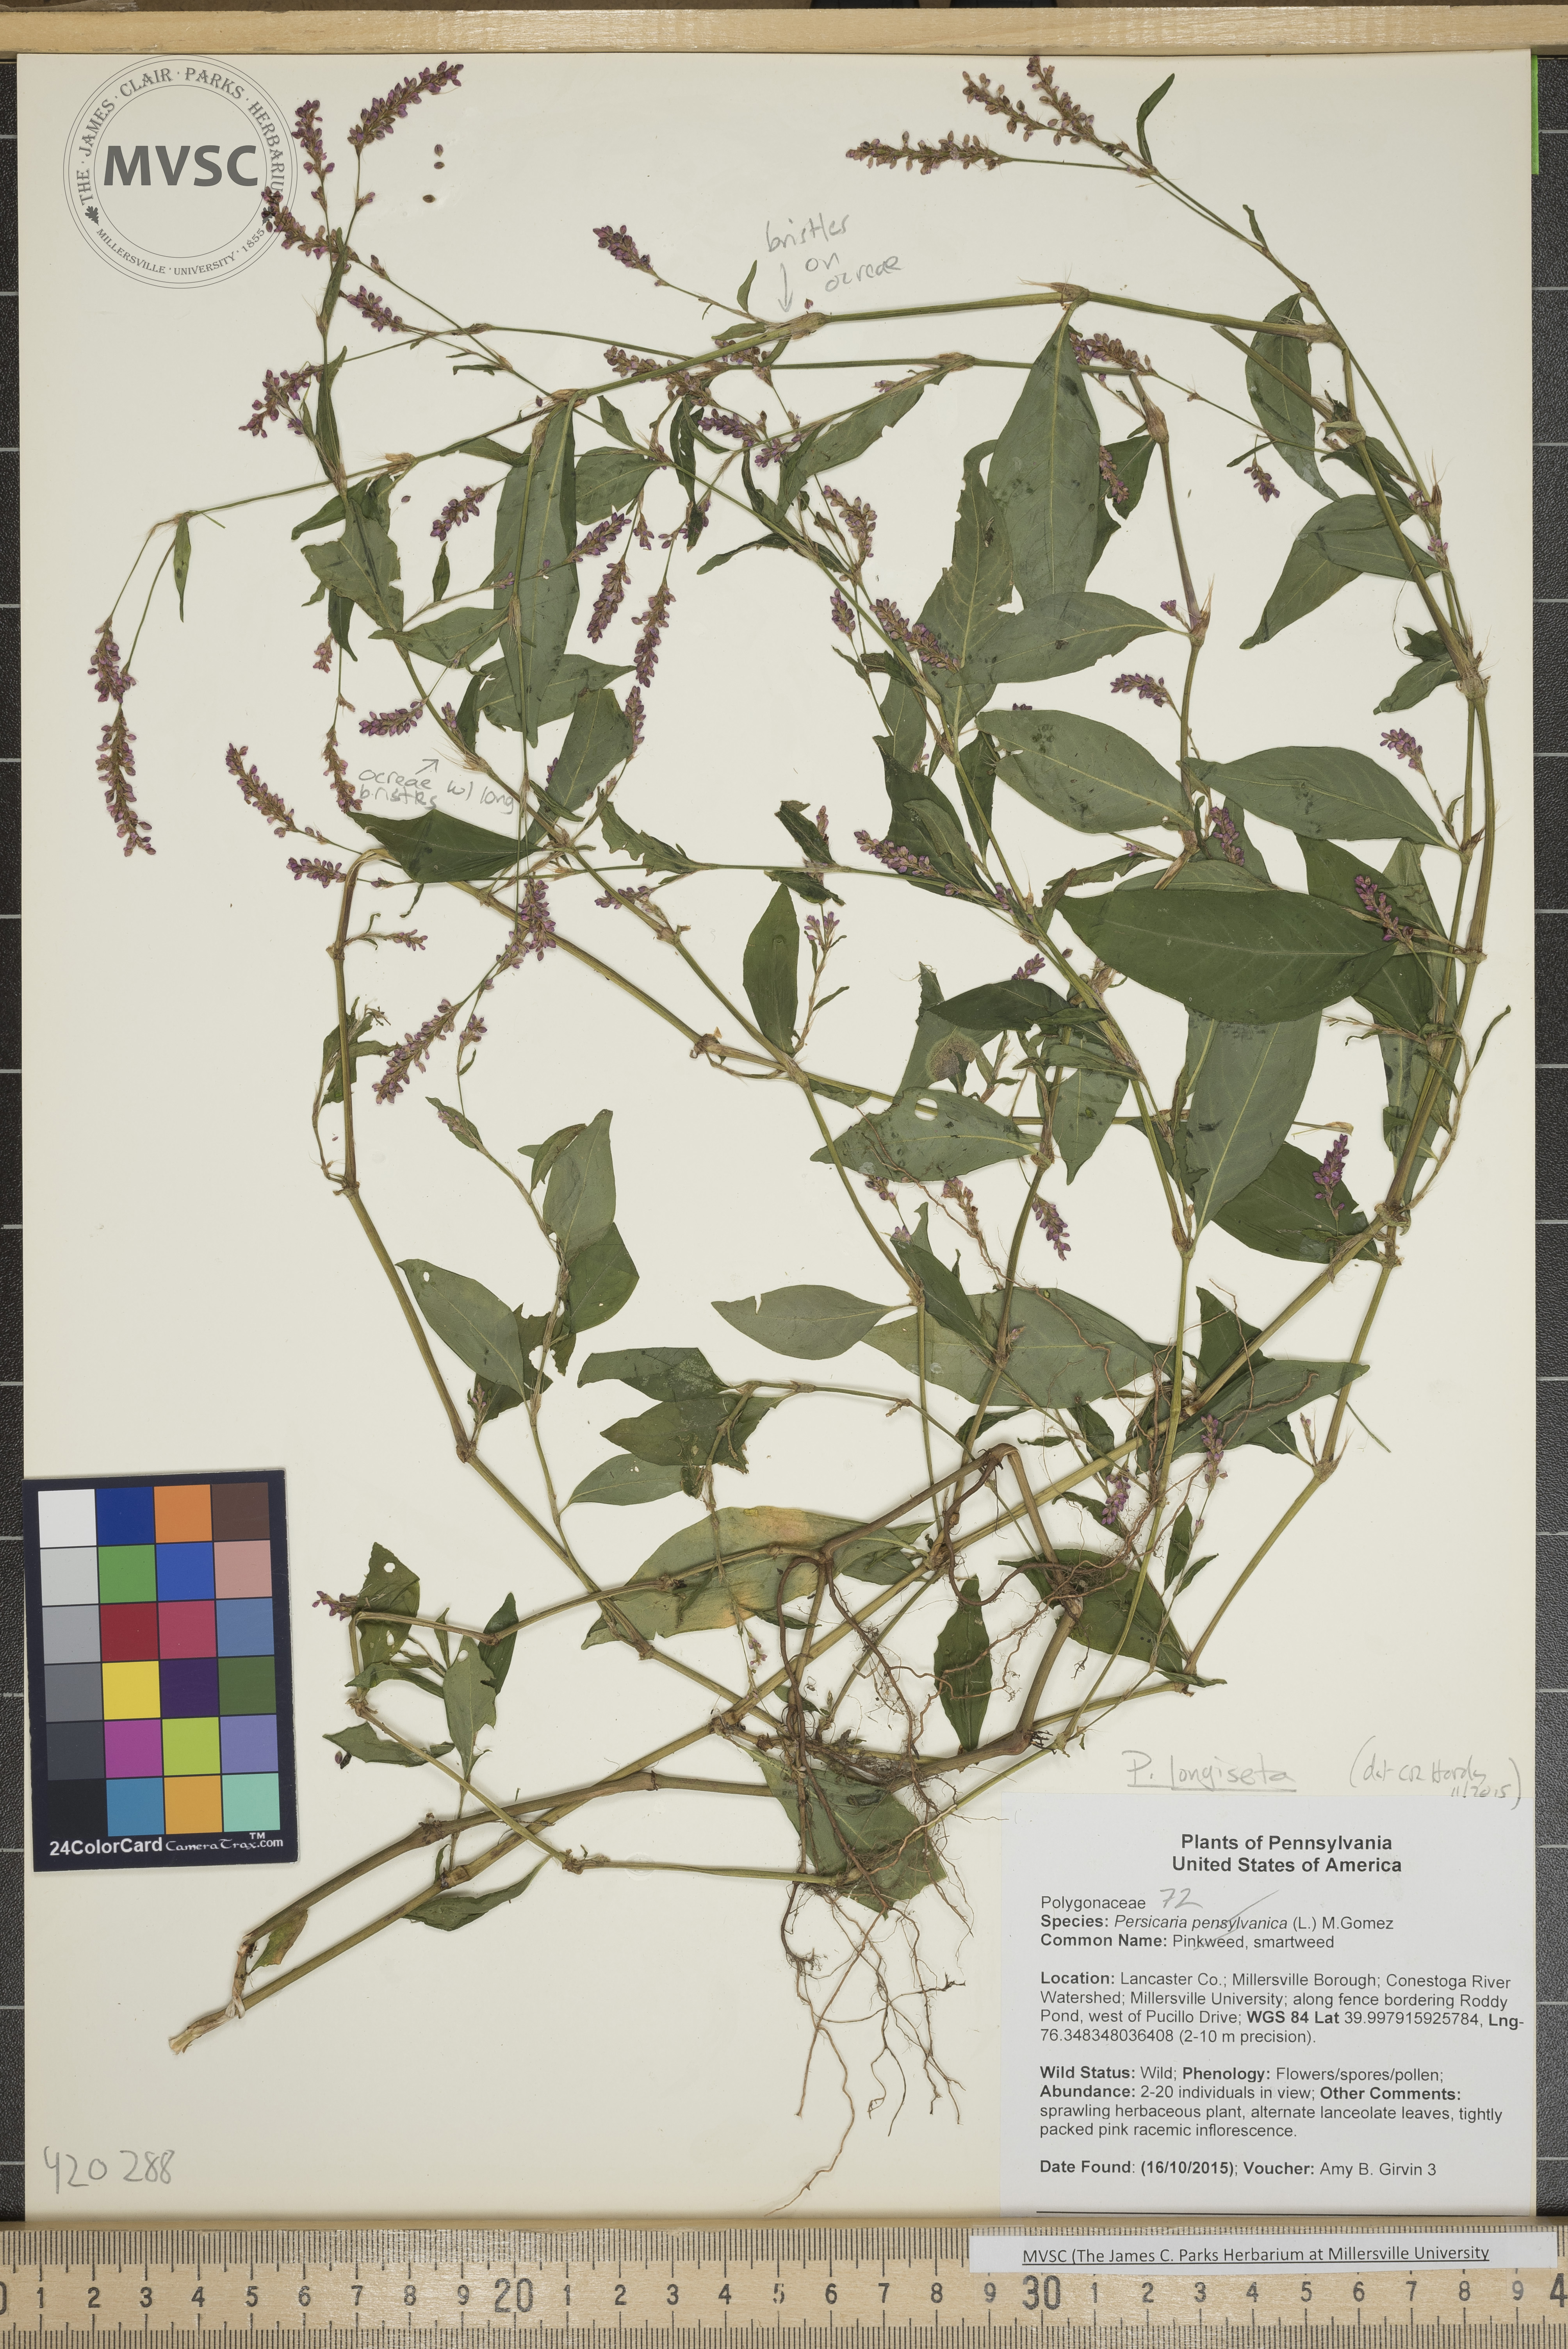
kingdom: Plantae
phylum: Tracheophyta
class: Magnoliopsida
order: Caryophyllales
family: Polygonaceae
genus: Persicaria
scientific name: Persicaria longiseta
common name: smartweed
